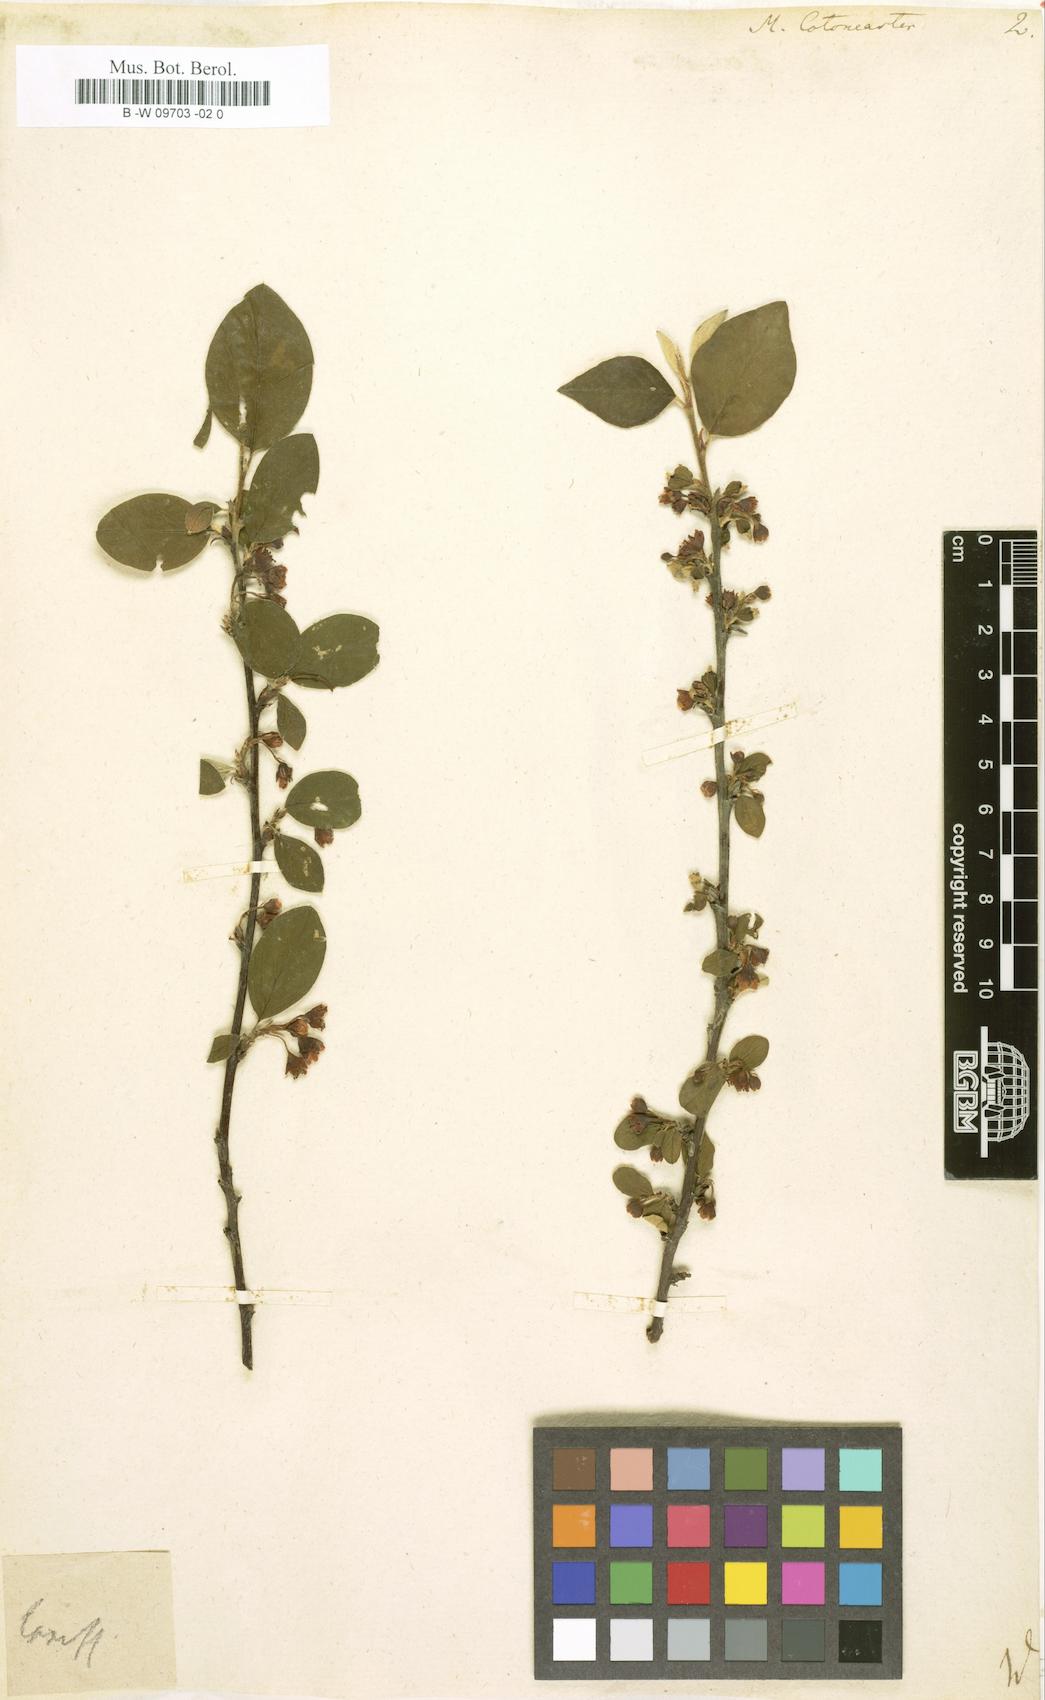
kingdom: Plantae
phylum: Tracheophyta
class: Magnoliopsida
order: Rosales
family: Rosaceae
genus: Cotoneaster
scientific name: Cotoneaster integerrimus
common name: Wild cotoneaster
